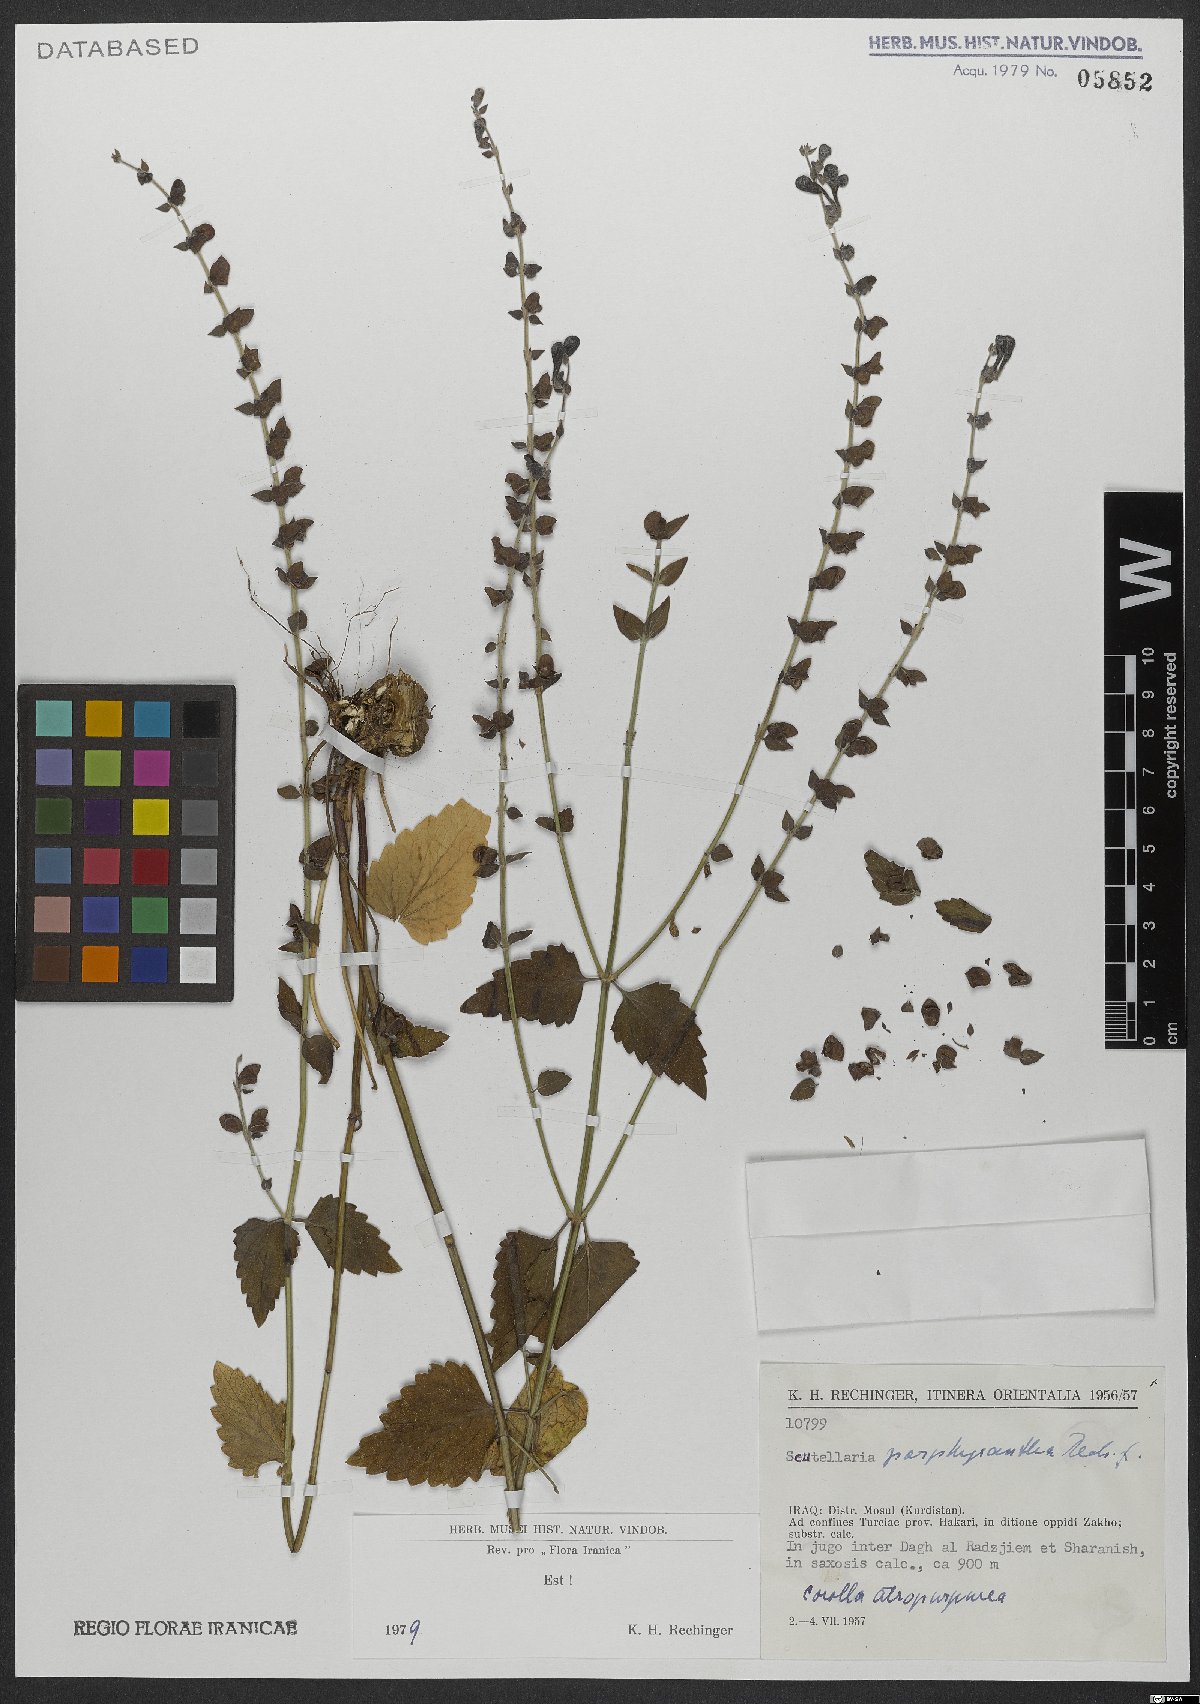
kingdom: Plantae
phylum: Tracheophyta
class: Magnoliopsida
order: Lamiales
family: Lamiaceae
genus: Scutellaria
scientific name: Scutellaria porphyrantha
